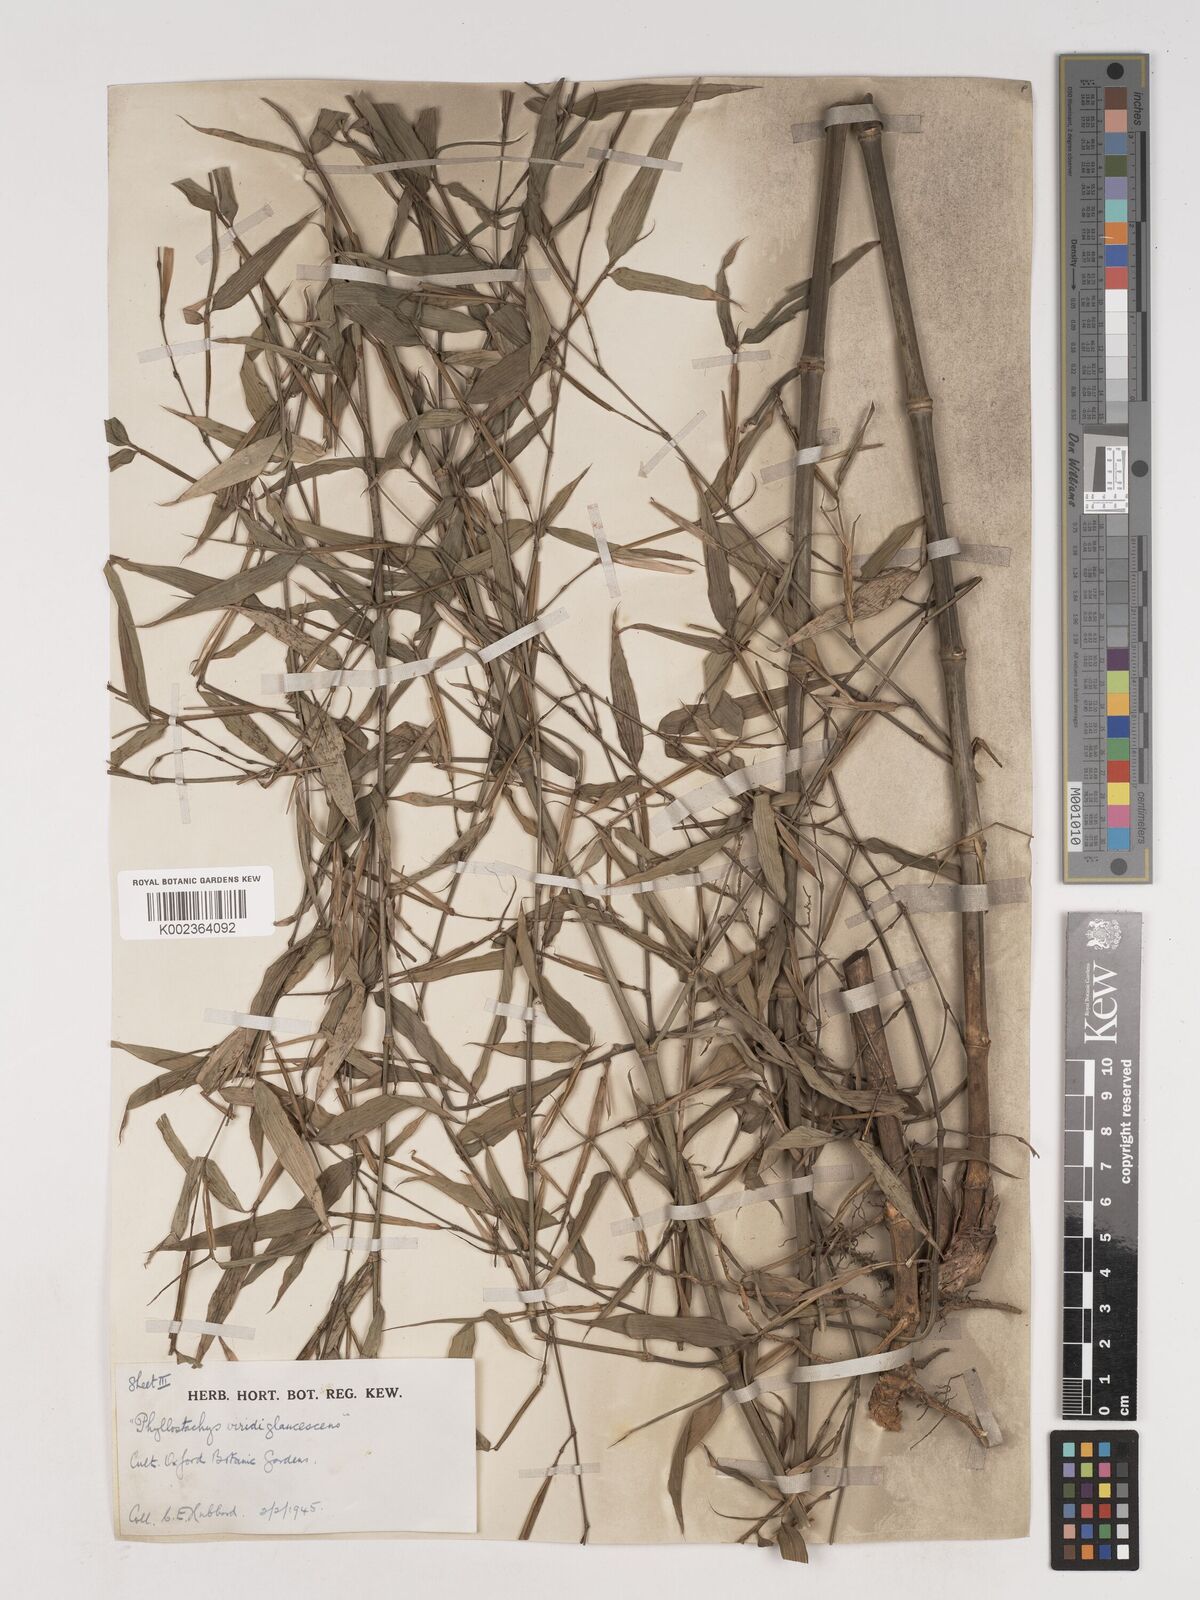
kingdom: Plantae
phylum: Tracheophyta
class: Liliopsida
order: Poales
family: Poaceae
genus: Phyllostachys
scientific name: Phyllostachys viridiglaucescens
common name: Greenwax golden bamboo
